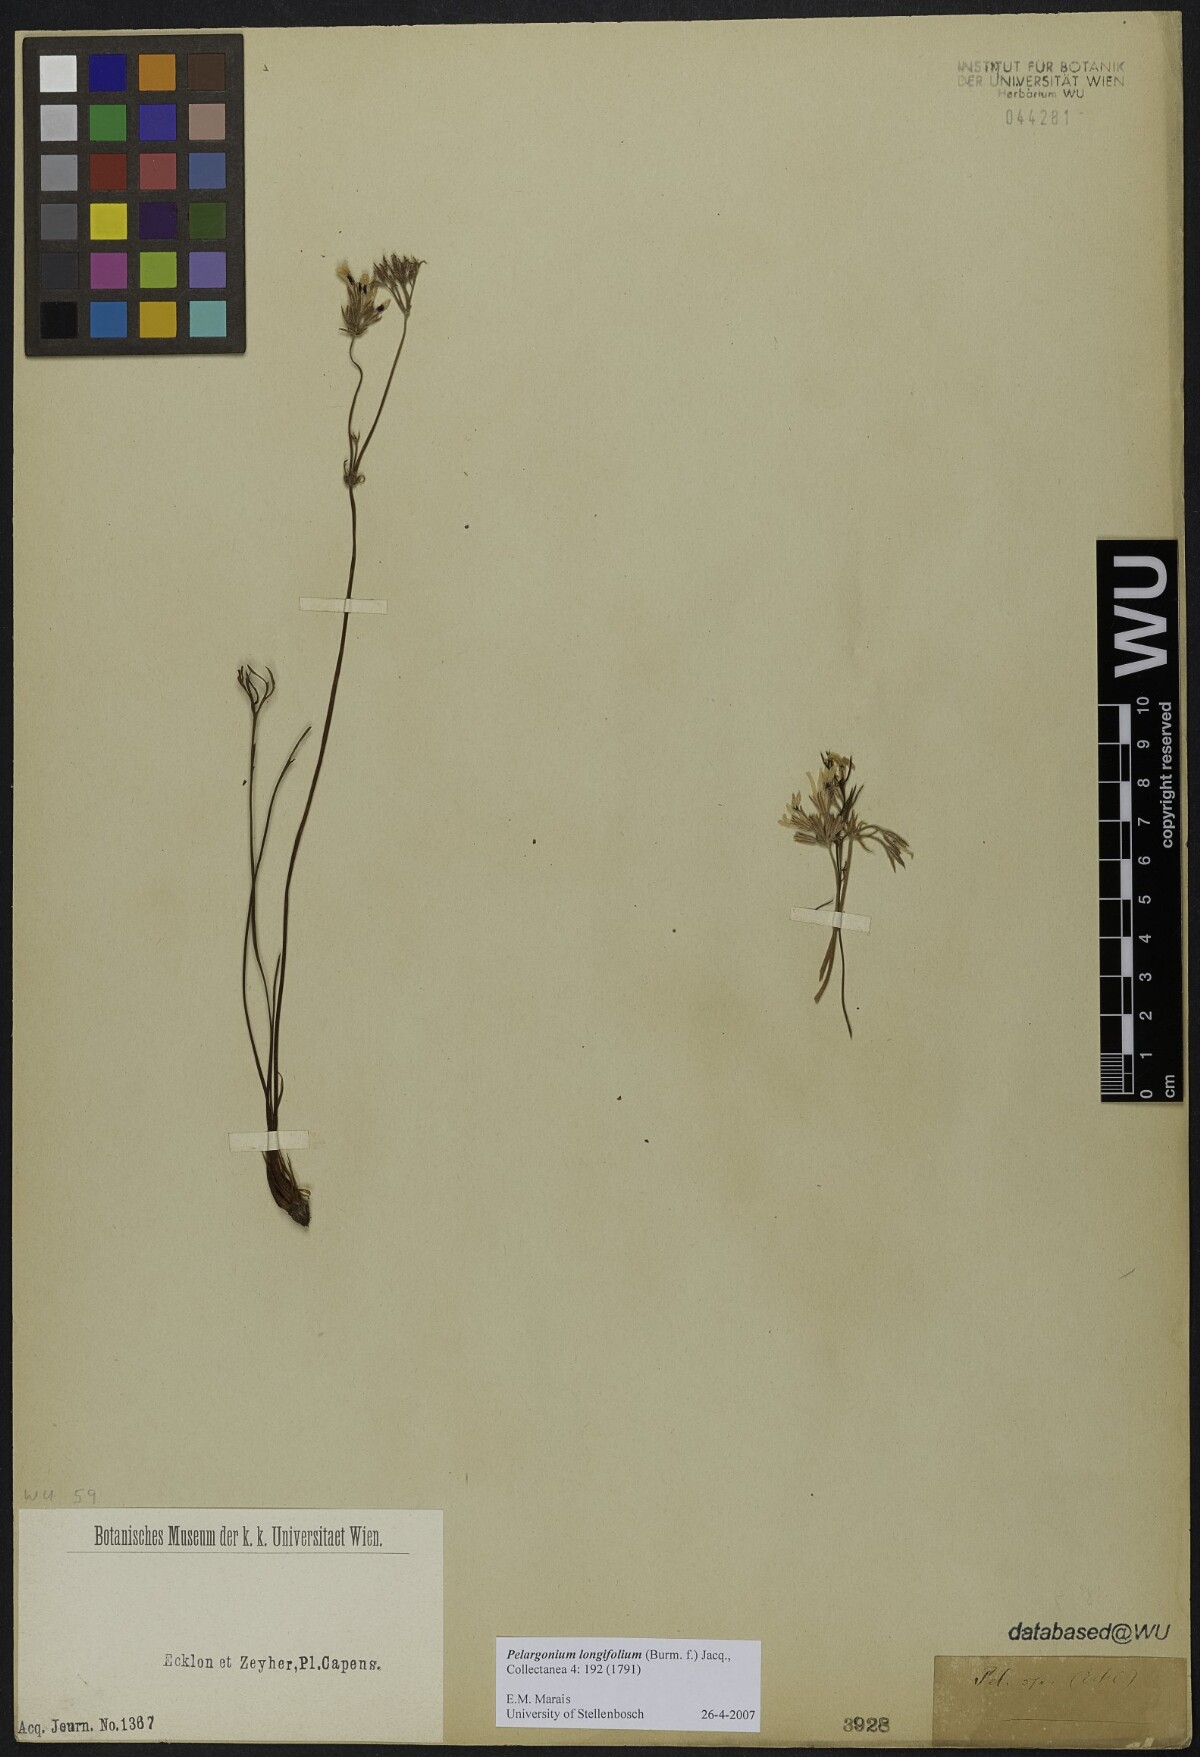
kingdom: Plantae
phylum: Tracheophyta
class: Magnoliopsida
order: Geraniales
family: Geraniaceae
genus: Pelargonium
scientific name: Pelargonium longifolium
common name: Bearded pelargonium
